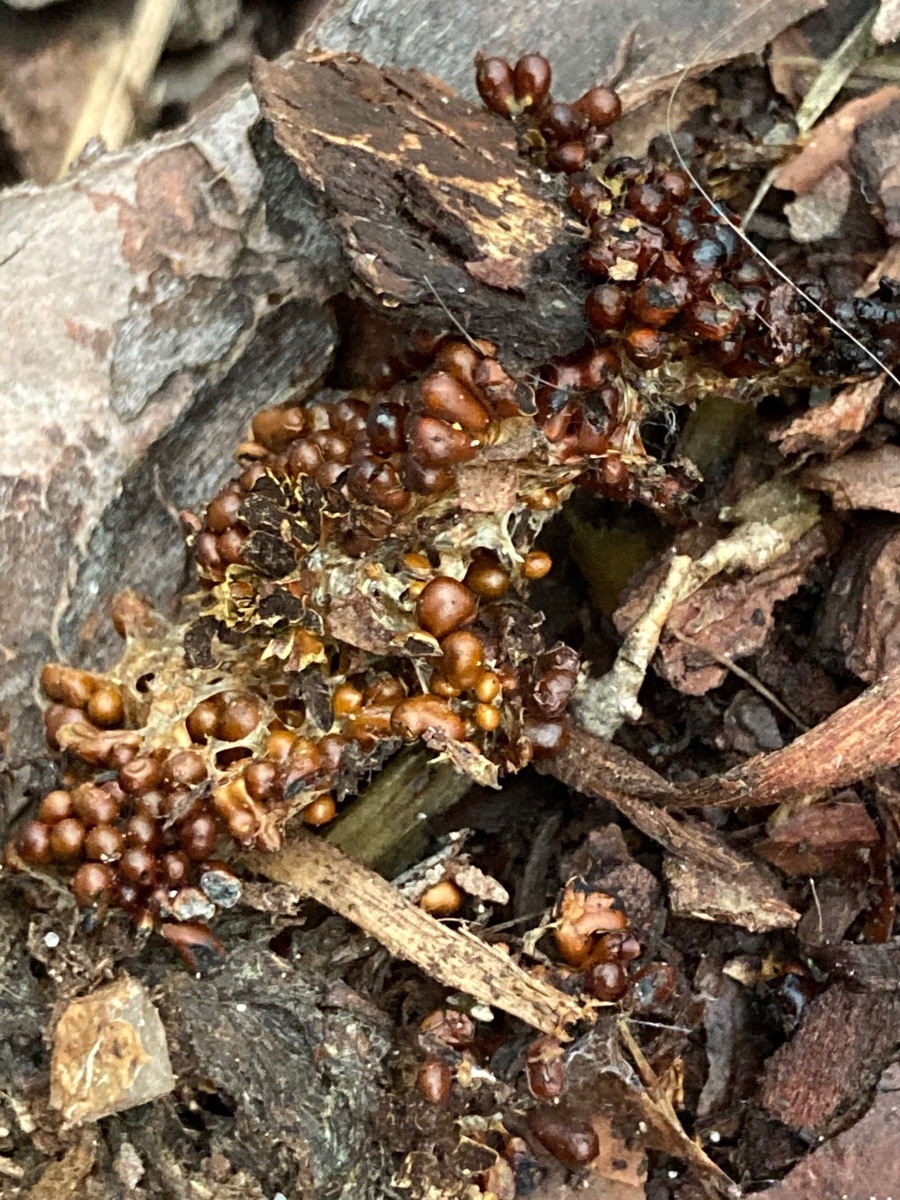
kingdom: Protozoa
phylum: Mycetozoa
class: Myxomycetes
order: Physarales
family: Physaraceae
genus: Leocarpus
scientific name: Leocarpus fragilis
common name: poleret glatfrø
